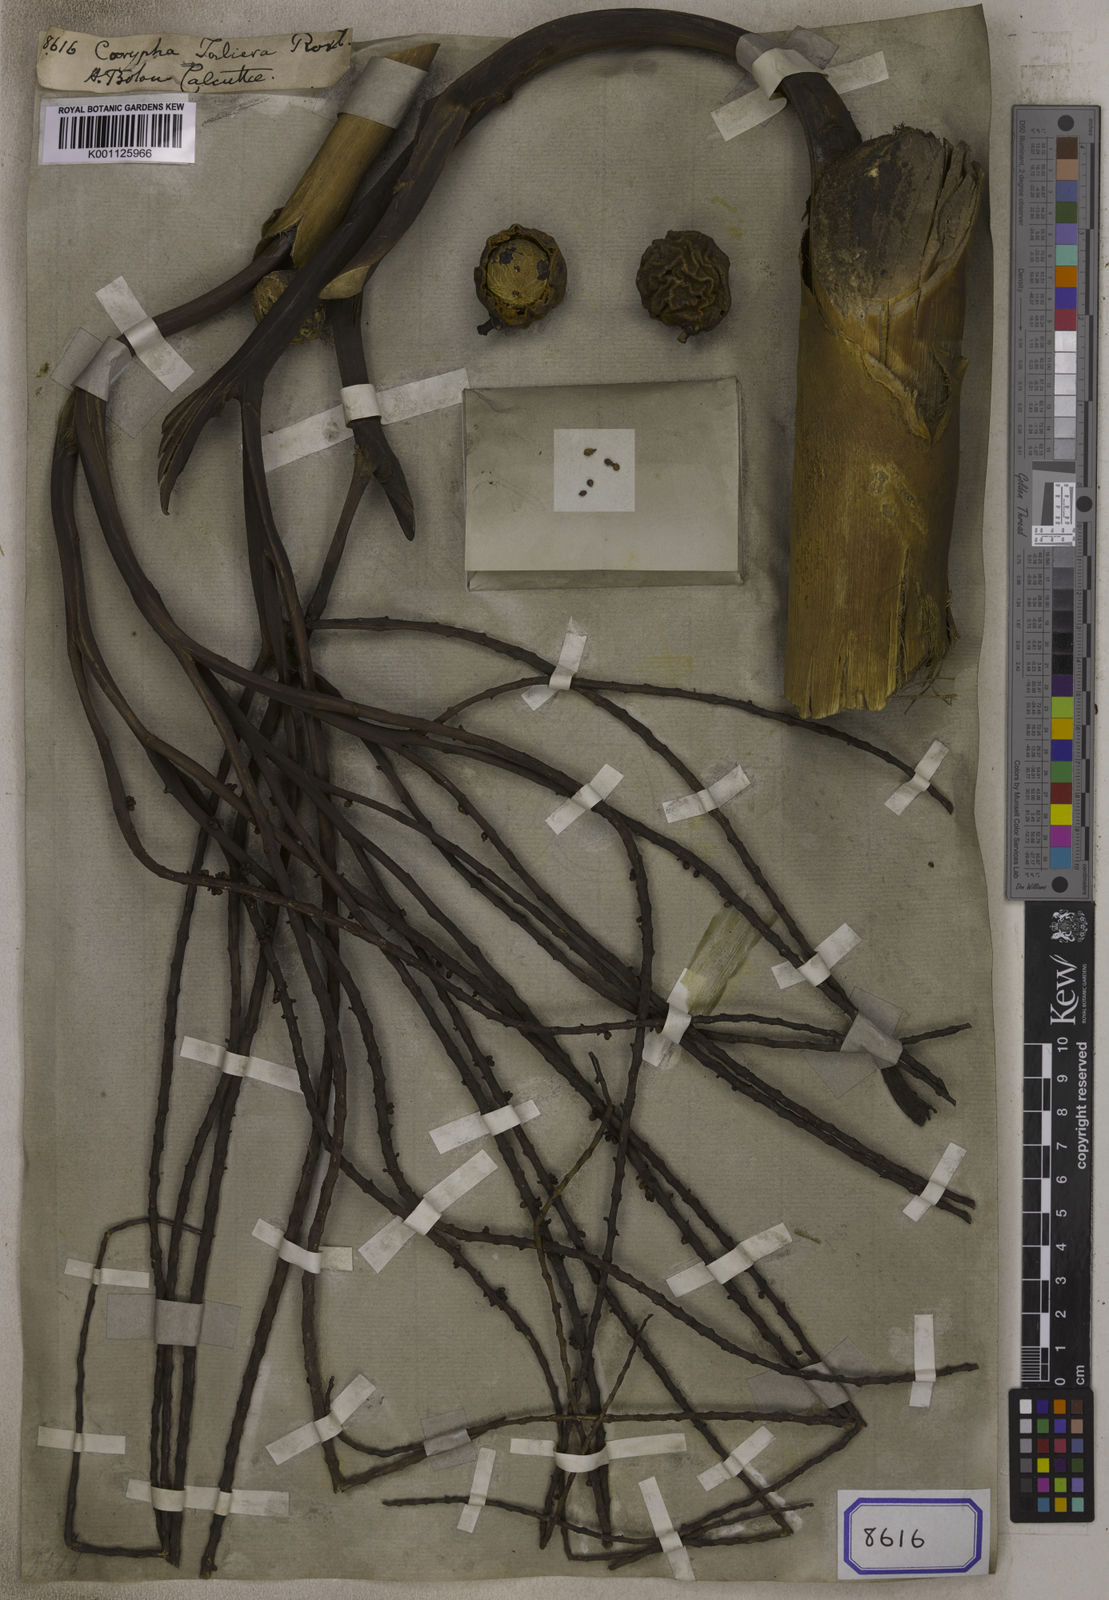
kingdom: Plantae
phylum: Tracheophyta
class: Liliopsida
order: Arecales
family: Arecaceae
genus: Corypha
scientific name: Corypha taliera
